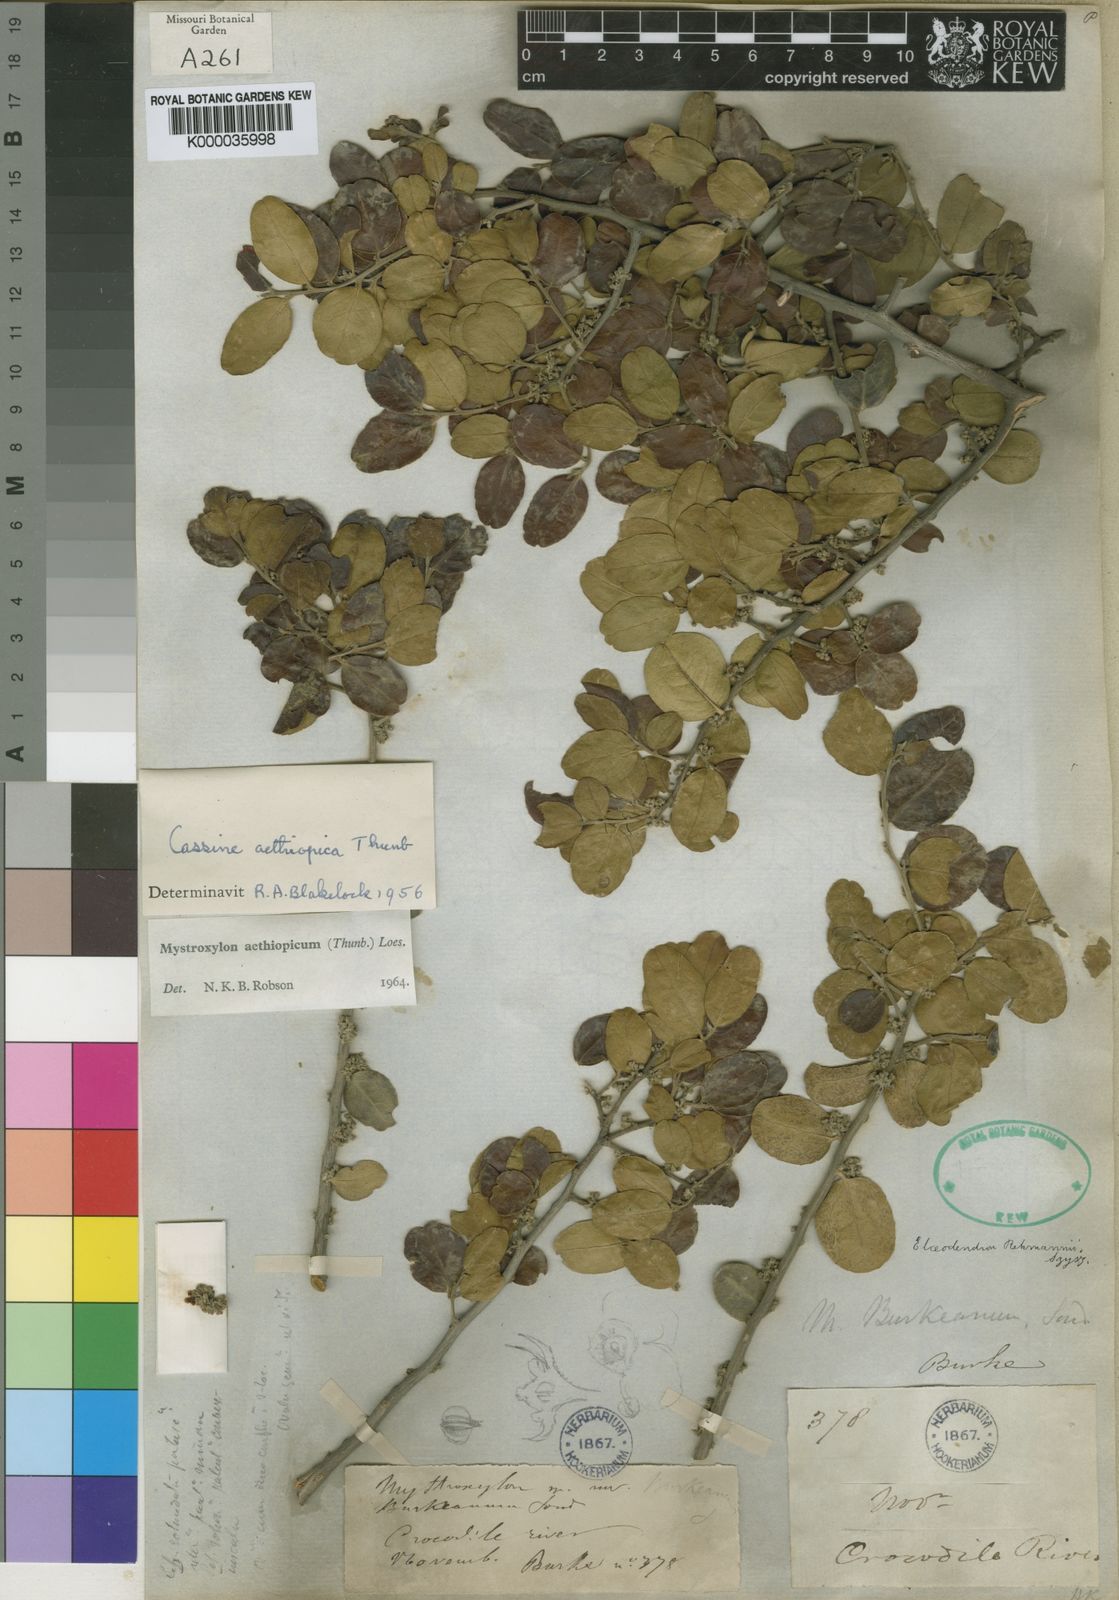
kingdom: Plantae
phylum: Tracheophyta
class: Magnoliopsida
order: Celastrales
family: Celastraceae
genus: Mystroxylon
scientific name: Mystroxylon aethiopicum
